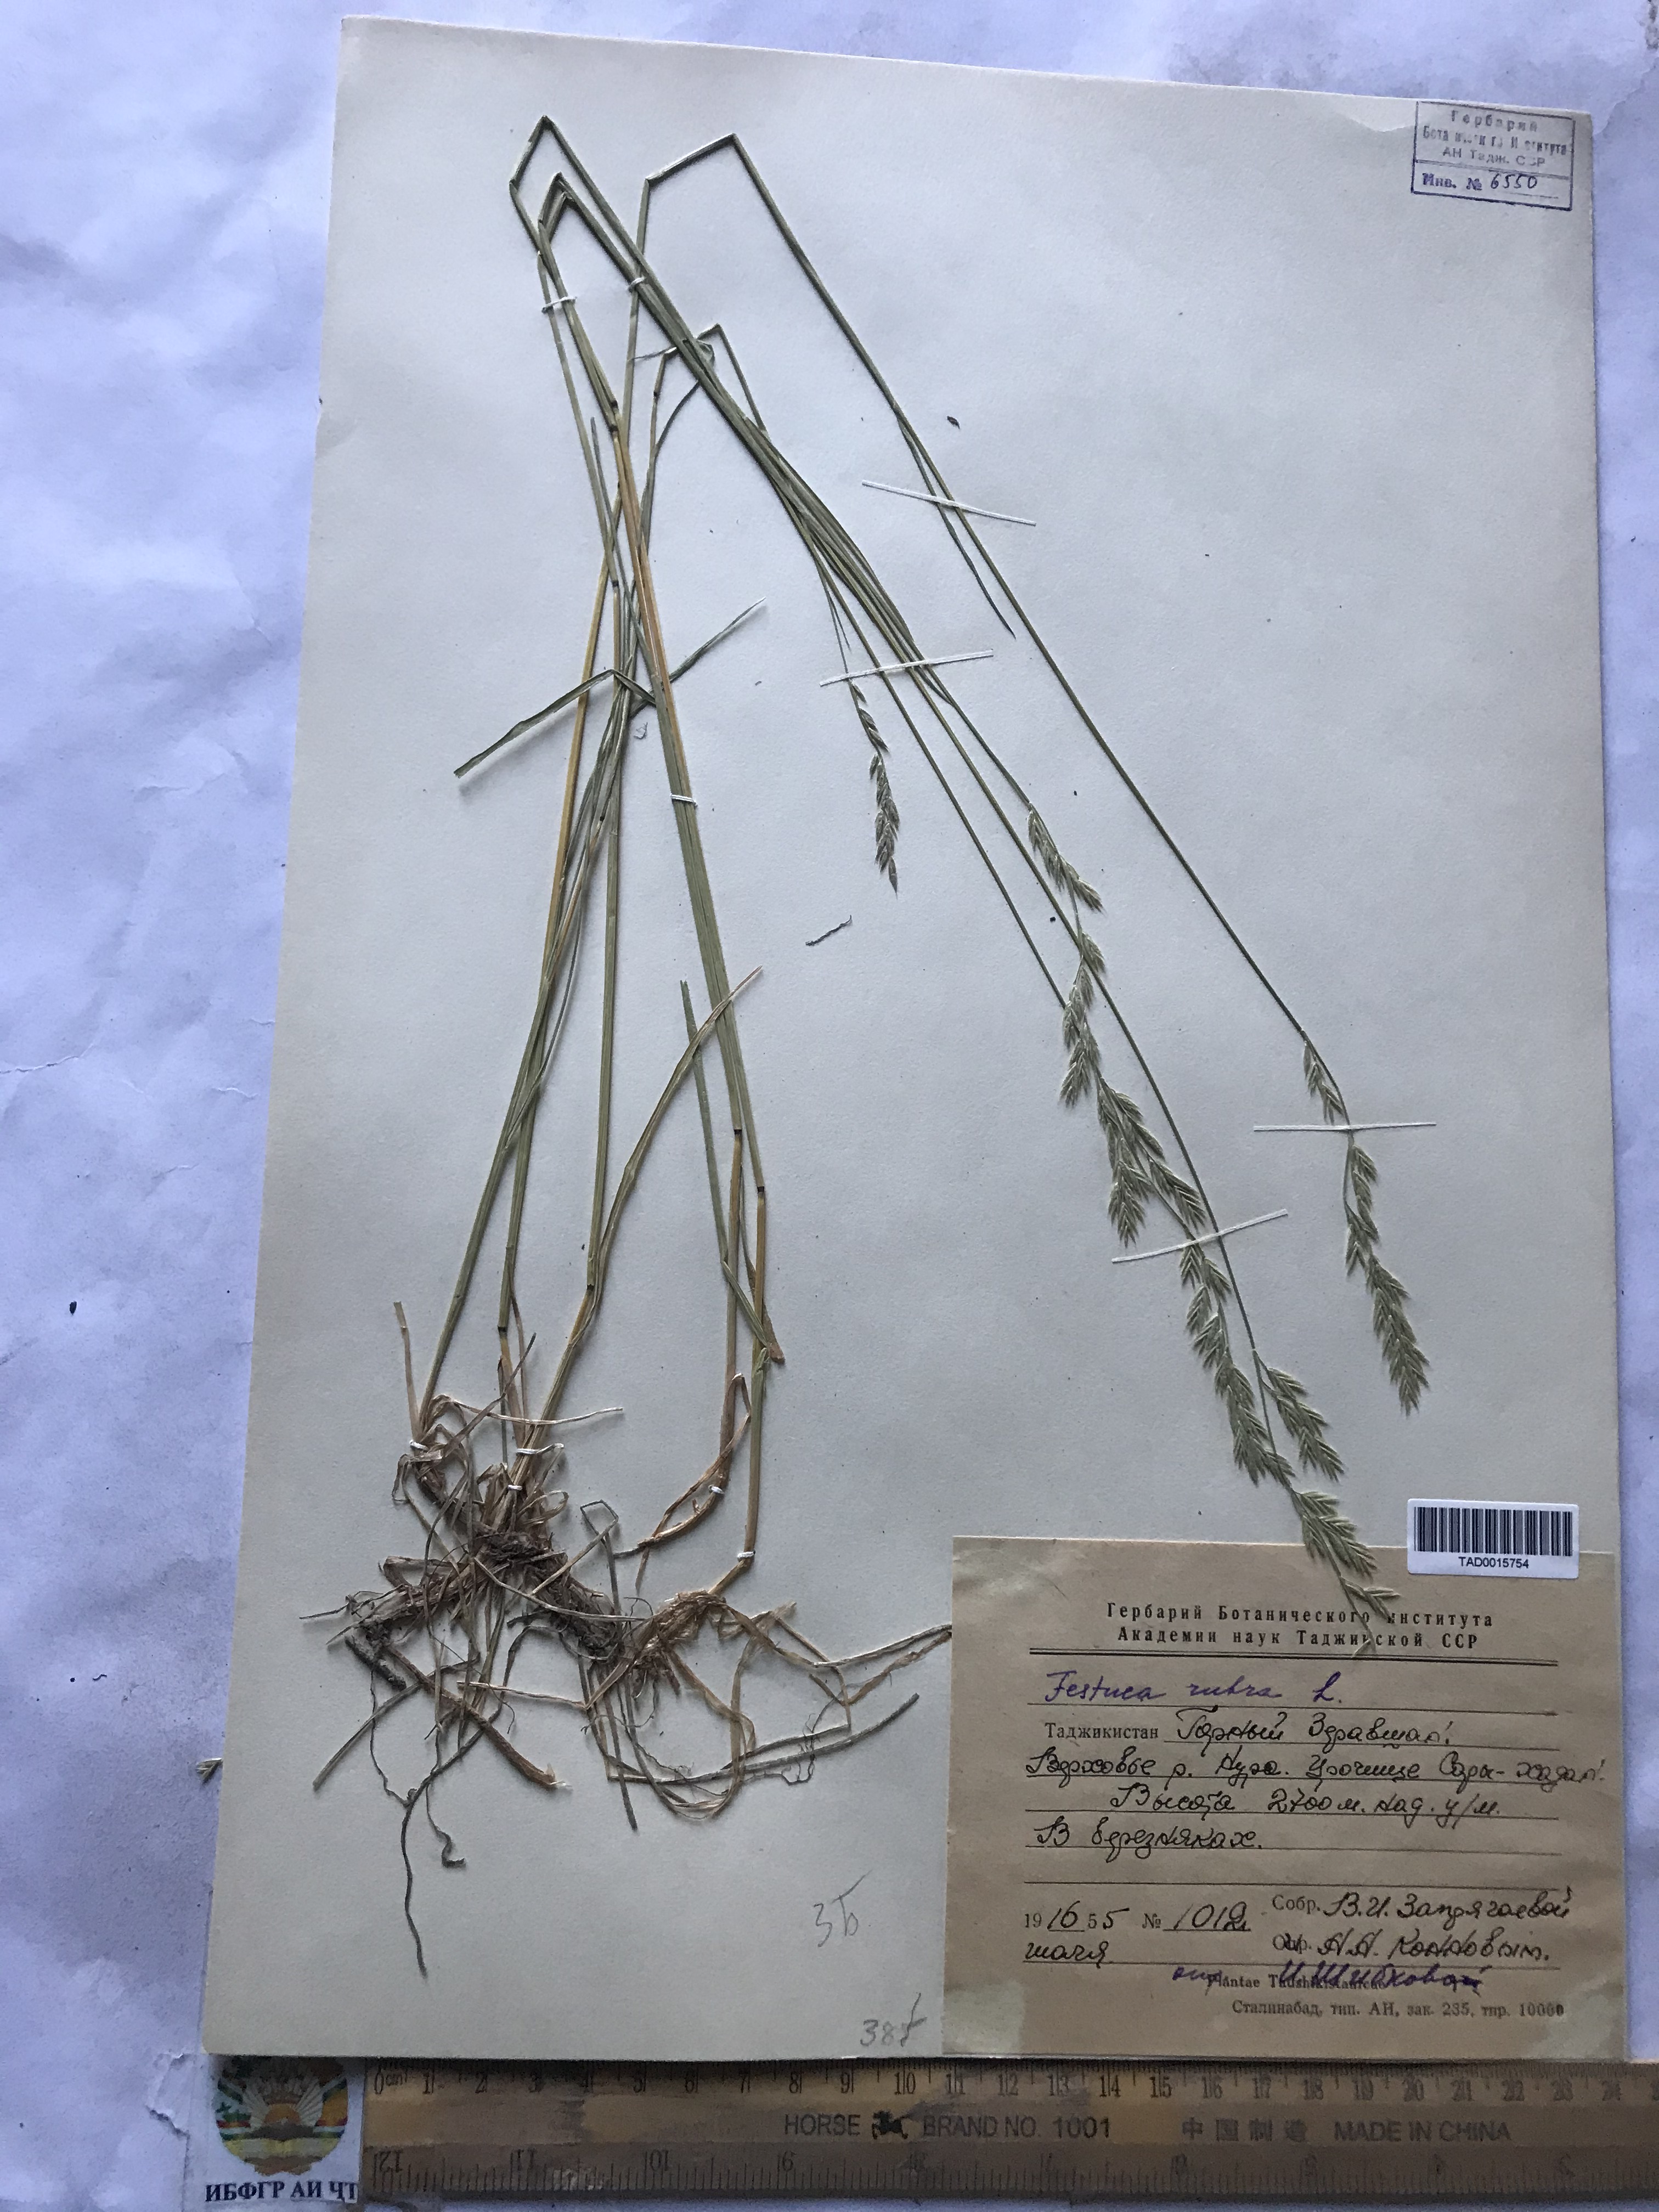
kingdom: Plantae
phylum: Tracheophyta
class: Liliopsida
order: Poales
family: Poaceae
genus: Festuca
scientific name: Festuca rubra
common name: Red fescue
